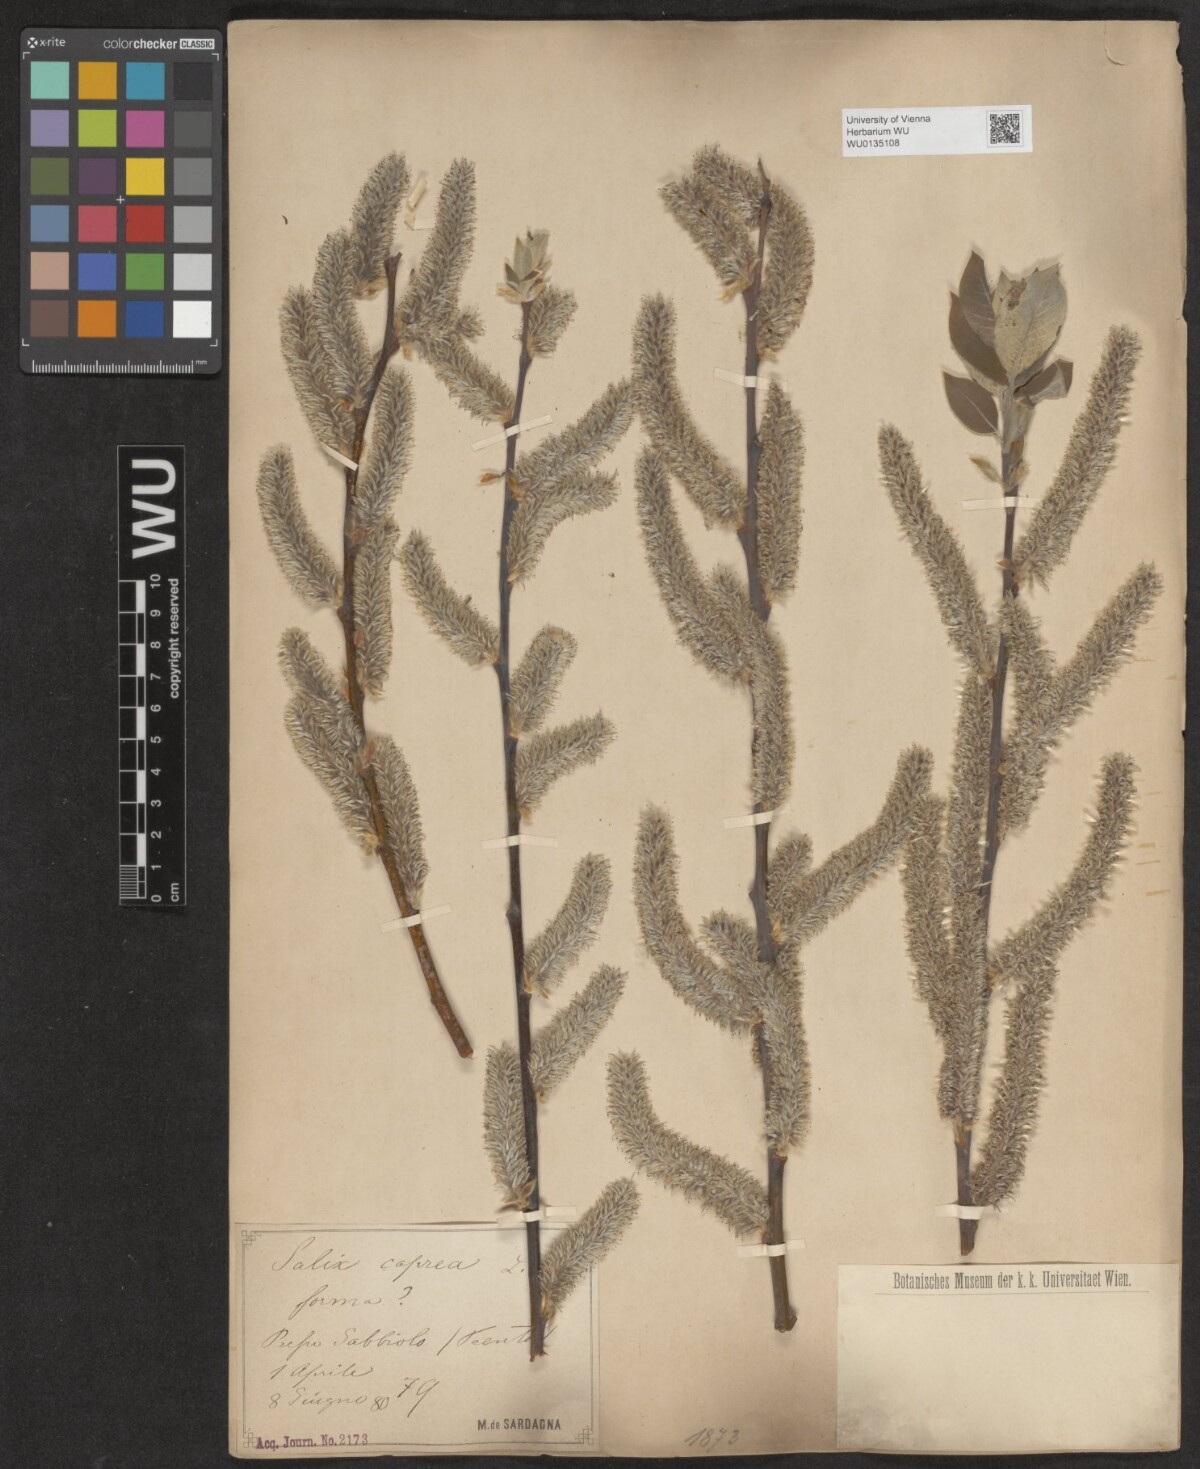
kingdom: Plantae
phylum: Tracheophyta
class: Magnoliopsida
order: Malpighiales
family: Salicaceae
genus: Salix
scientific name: Salix caprea
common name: Goat willow
